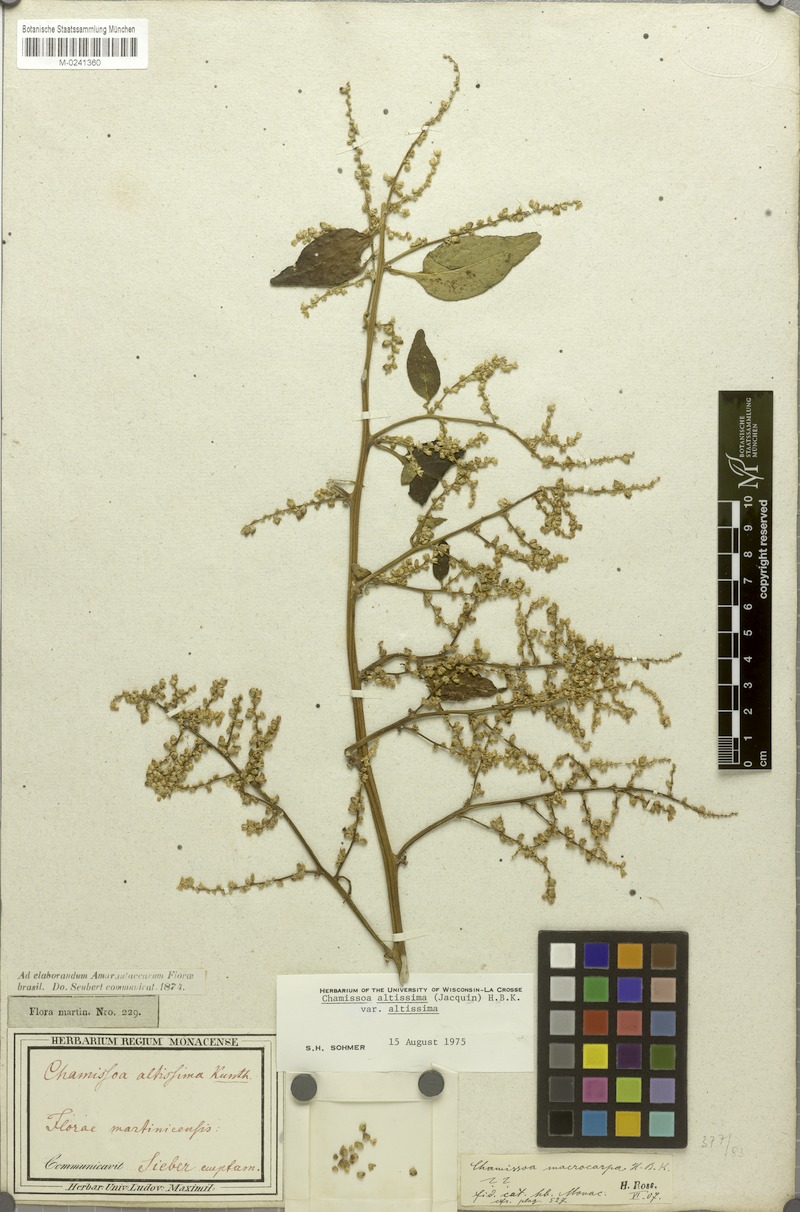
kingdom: Plantae
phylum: Tracheophyta
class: Magnoliopsida
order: Caryophyllales
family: Amaranthaceae
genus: Chamissoa
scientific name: Chamissoa altissima
